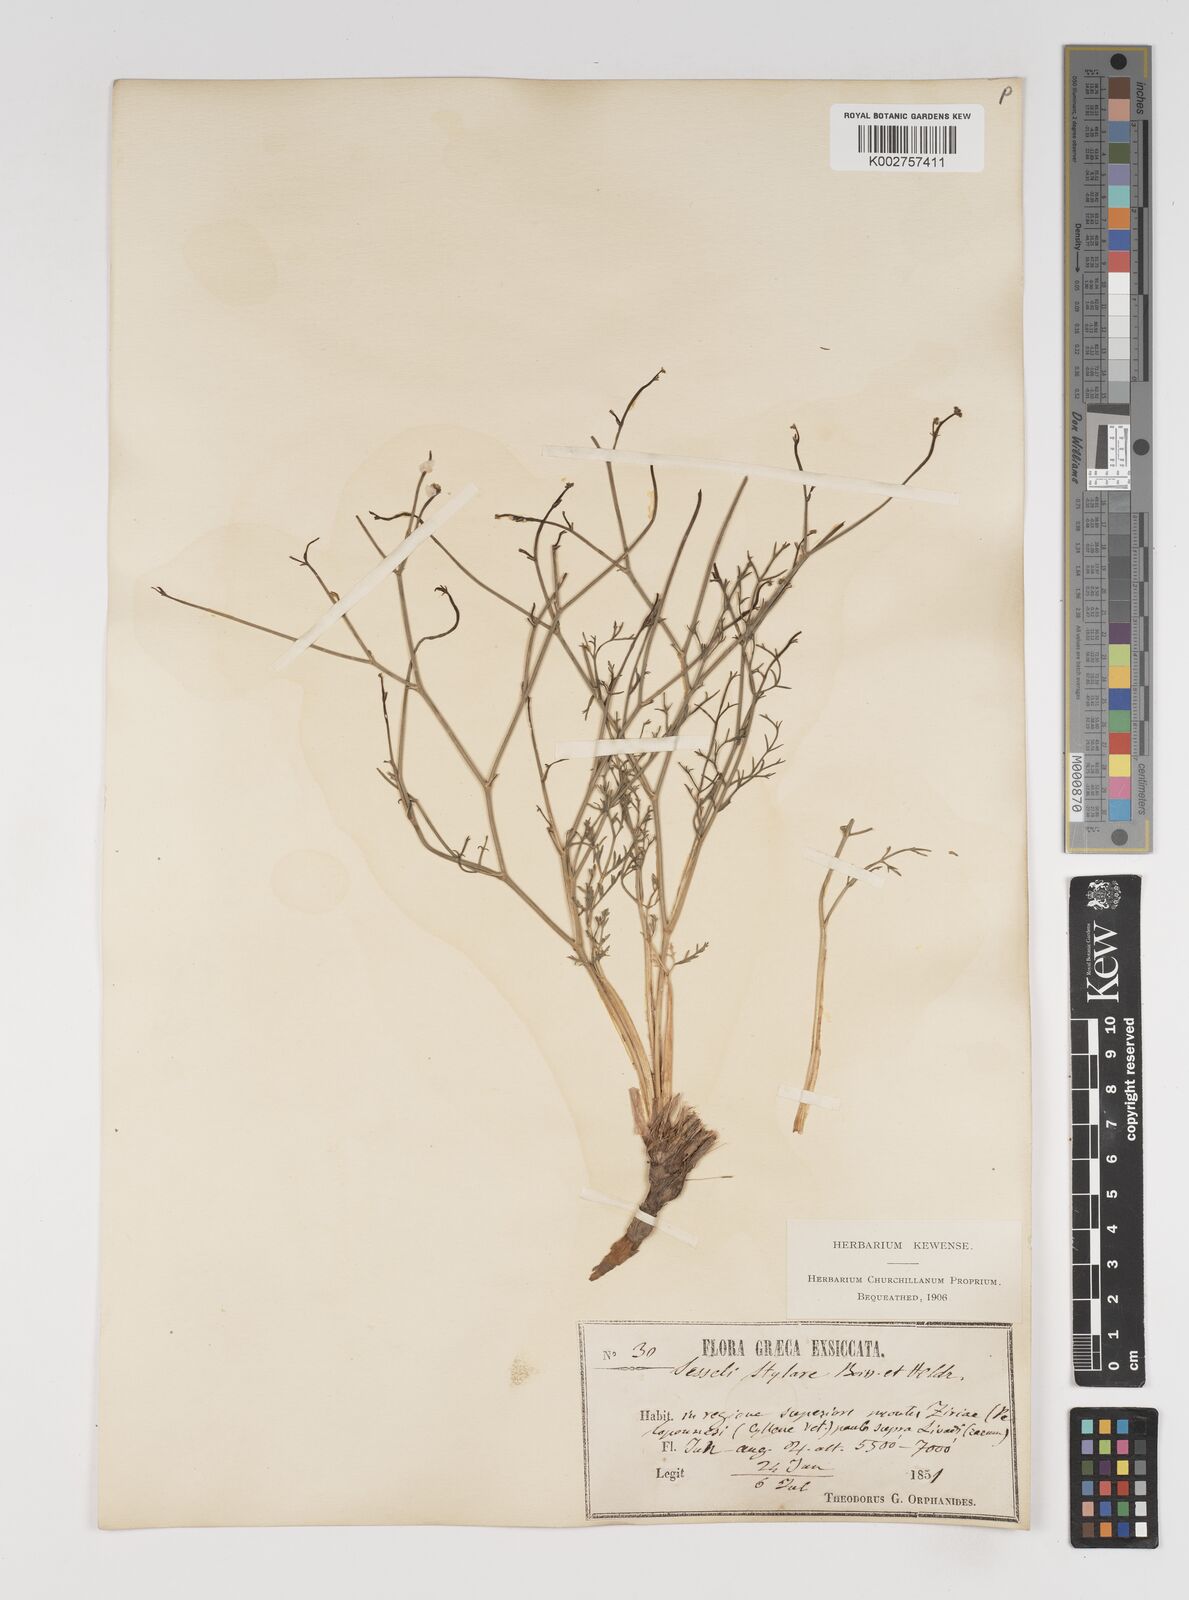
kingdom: Plantae
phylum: Tracheophyta
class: Magnoliopsida
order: Apiales
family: Apiaceae
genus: Thamnosciadium
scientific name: Thamnosciadium junceum
